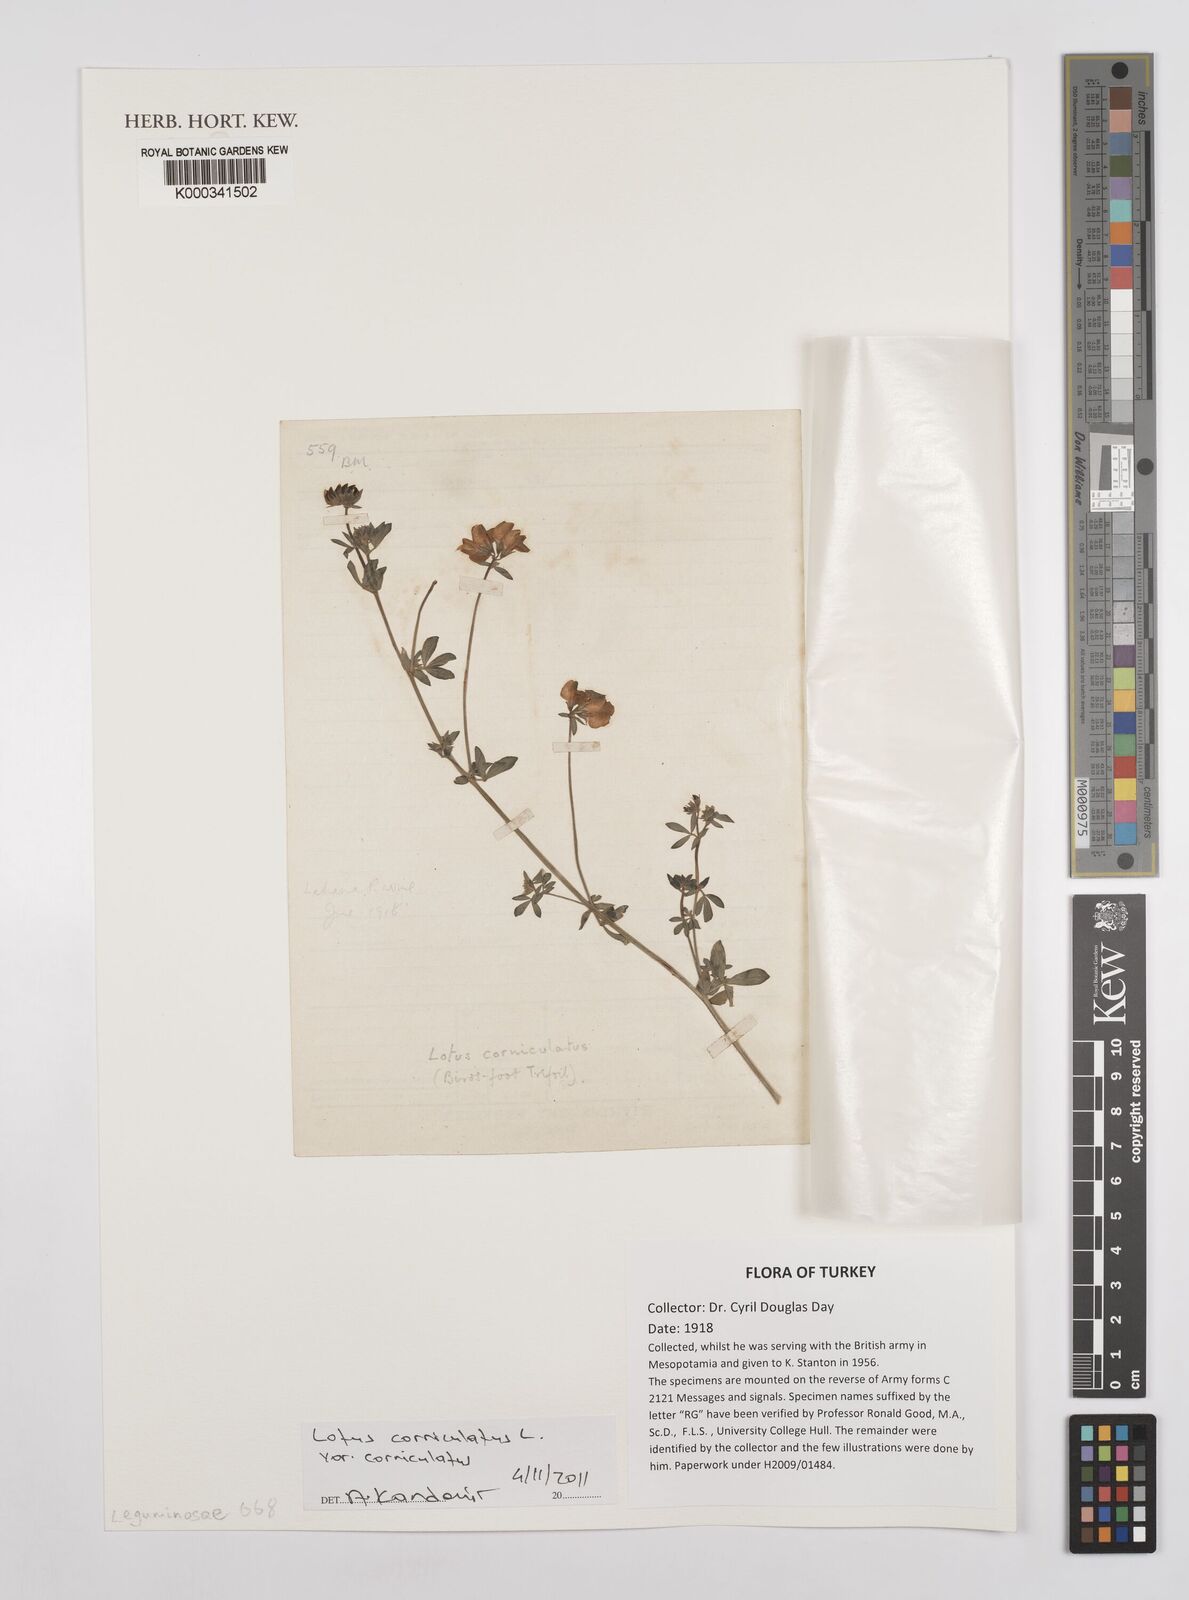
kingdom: Plantae
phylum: Tracheophyta
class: Magnoliopsida
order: Fabales
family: Fabaceae
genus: Lotus
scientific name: Lotus corniculatus
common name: Common bird's-foot-trefoil
